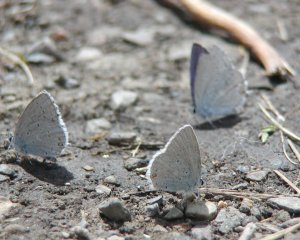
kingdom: Animalia
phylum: Arthropoda
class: Insecta
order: Lepidoptera
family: Lycaenidae
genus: Elkalyce
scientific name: Elkalyce amyntula
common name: Western Tailed-Blue
